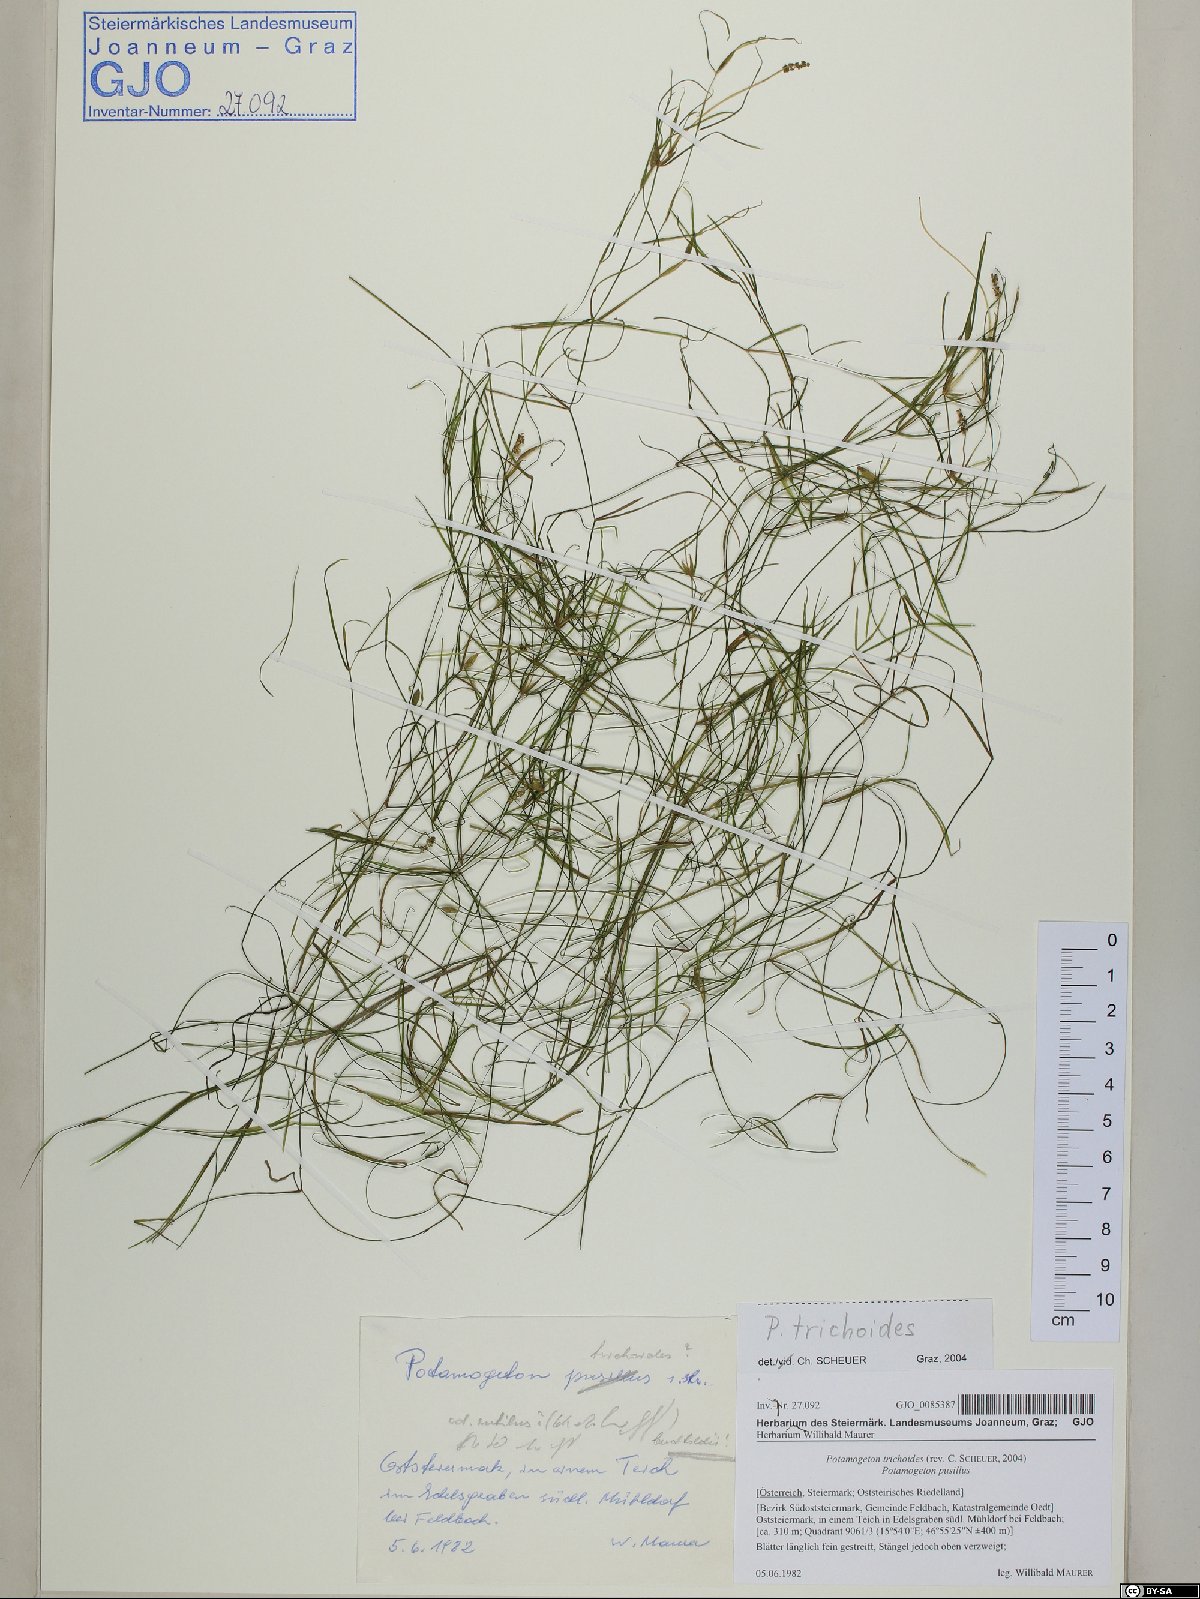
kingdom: Plantae
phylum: Tracheophyta
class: Liliopsida
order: Alismatales
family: Potamogetonaceae
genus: Potamogeton
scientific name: Potamogeton trichoides
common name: Hairlike pondweed
